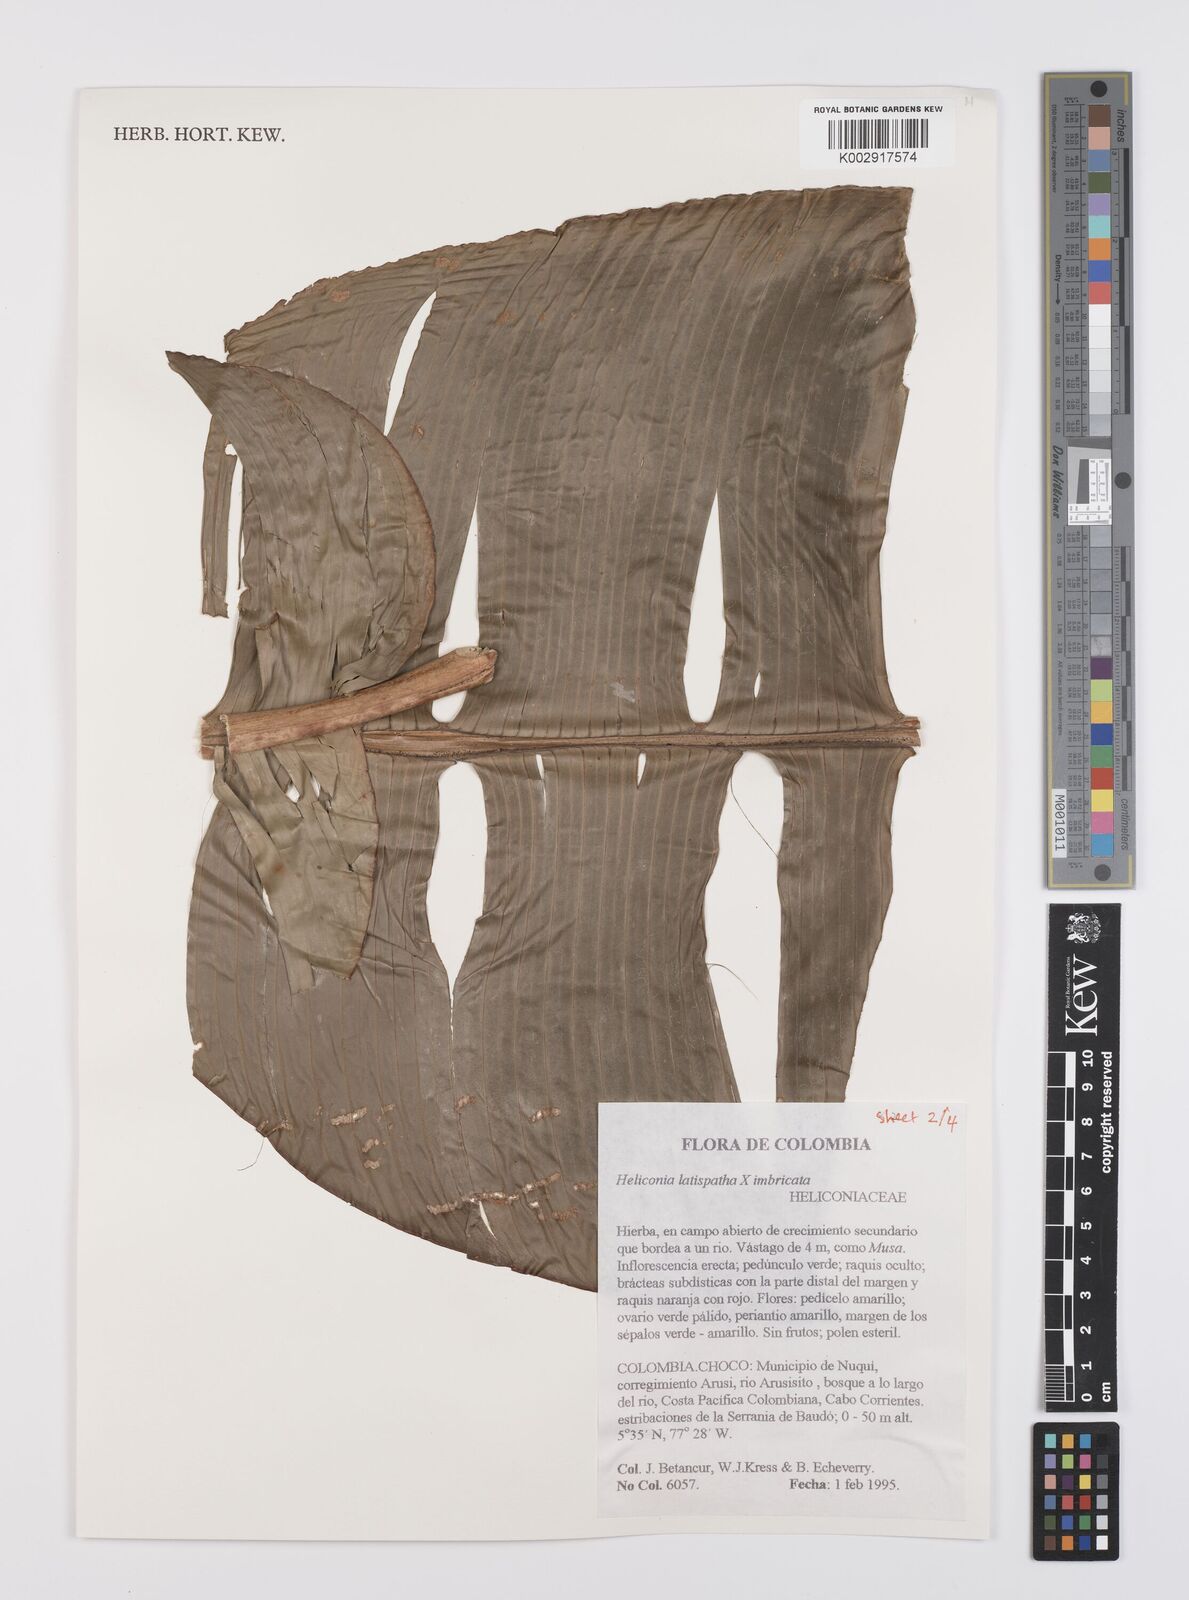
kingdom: Plantae
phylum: Tracheophyta
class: Liliopsida
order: Zingiberales
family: Heliconiaceae
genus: Heliconia
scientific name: Heliconia latispatha
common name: Expanded lobsterclaw
